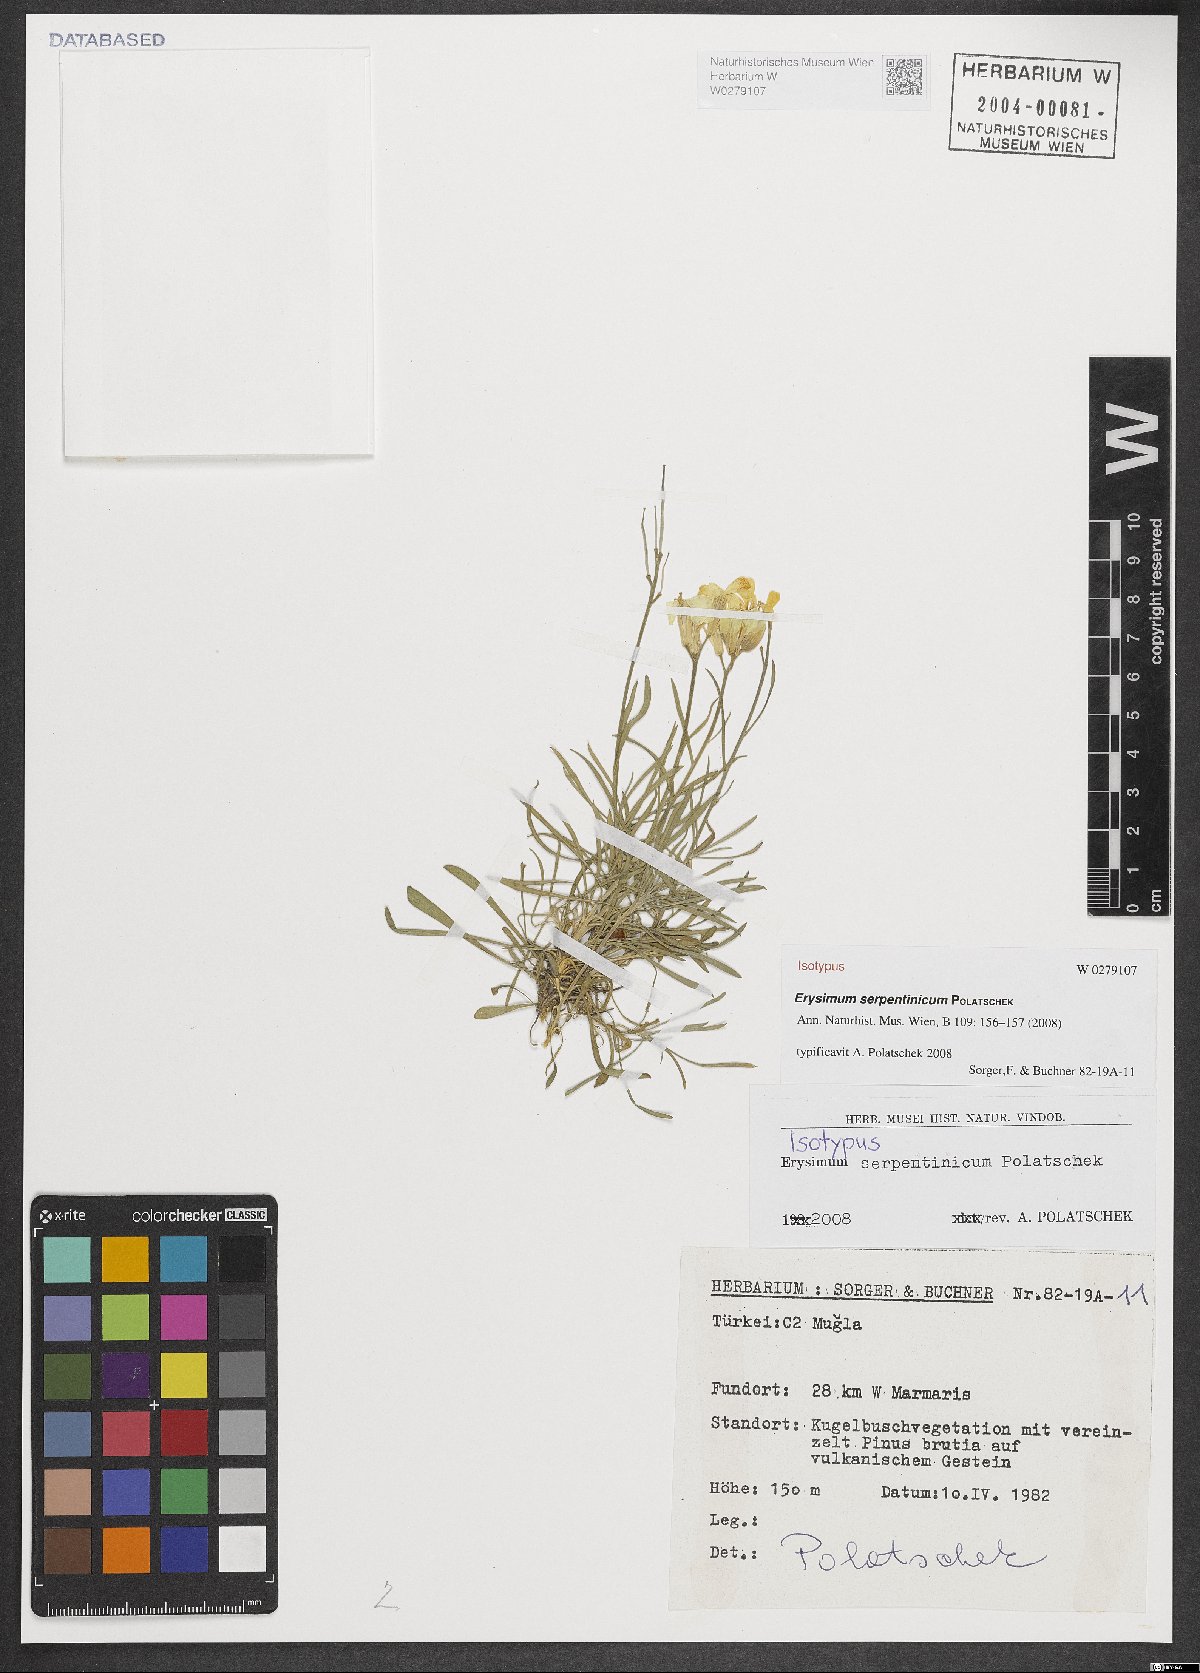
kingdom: Plantae
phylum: Tracheophyta
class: Magnoliopsida
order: Brassicales
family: Brassicaceae
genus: Erysimum
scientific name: Erysimum serpentinicum
